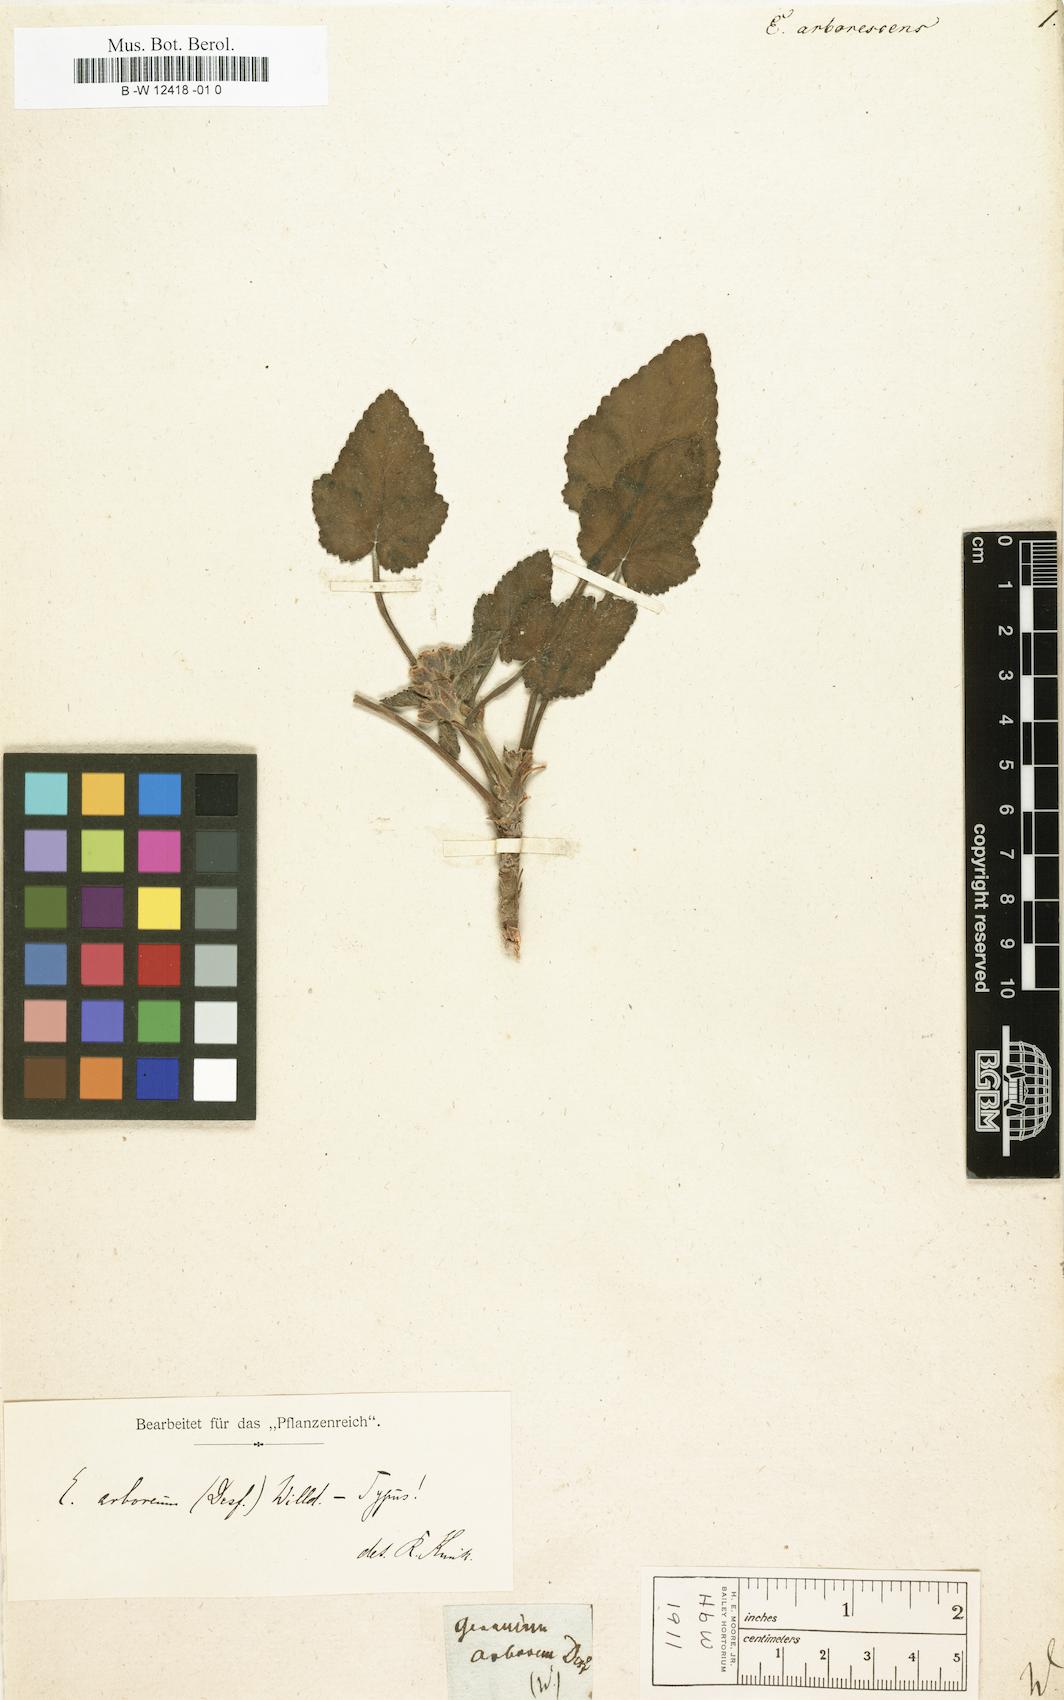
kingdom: Plantae
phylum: Tracheophyta
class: Magnoliopsida
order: Geraniales
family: Geraniaceae
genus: Erodium
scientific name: Erodium arborescens
